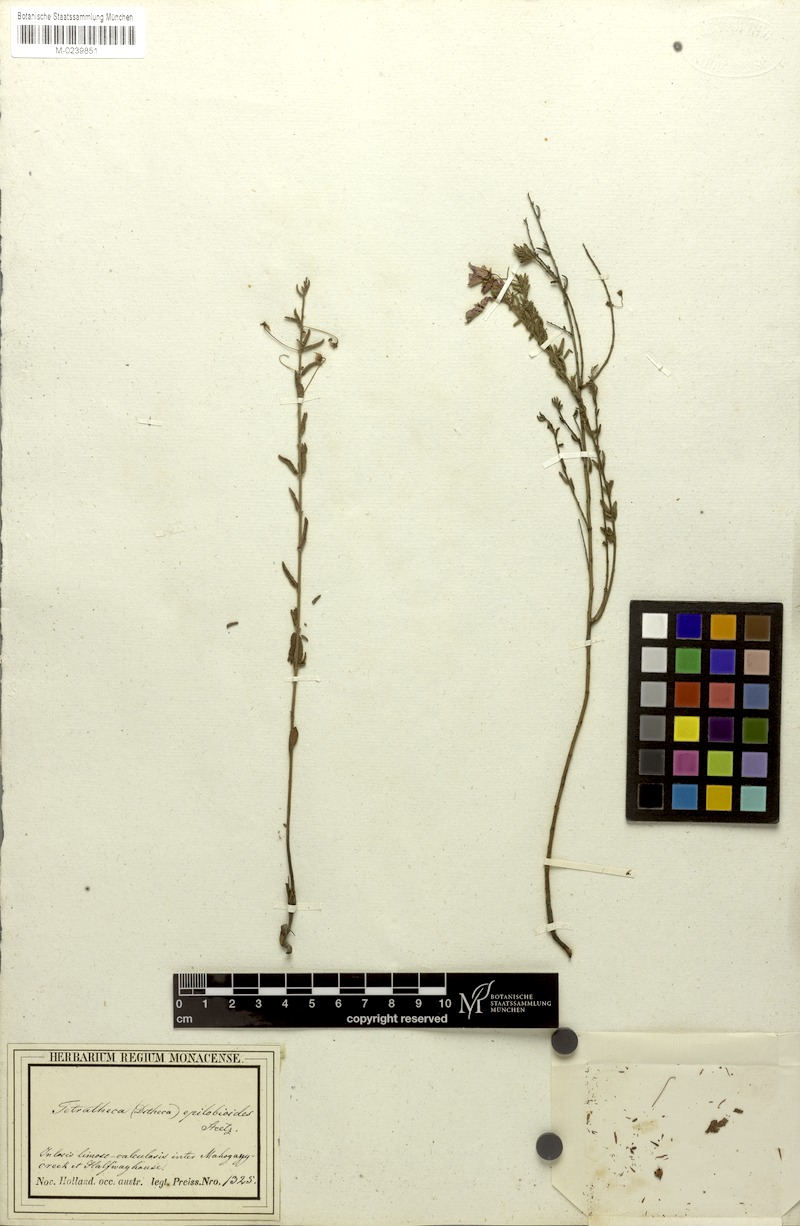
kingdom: Plantae
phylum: Tracheophyta
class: Magnoliopsida
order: Oxalidales
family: Elaeocarpaceae
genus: Tetratheca
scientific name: Tetratheca hirsuta
